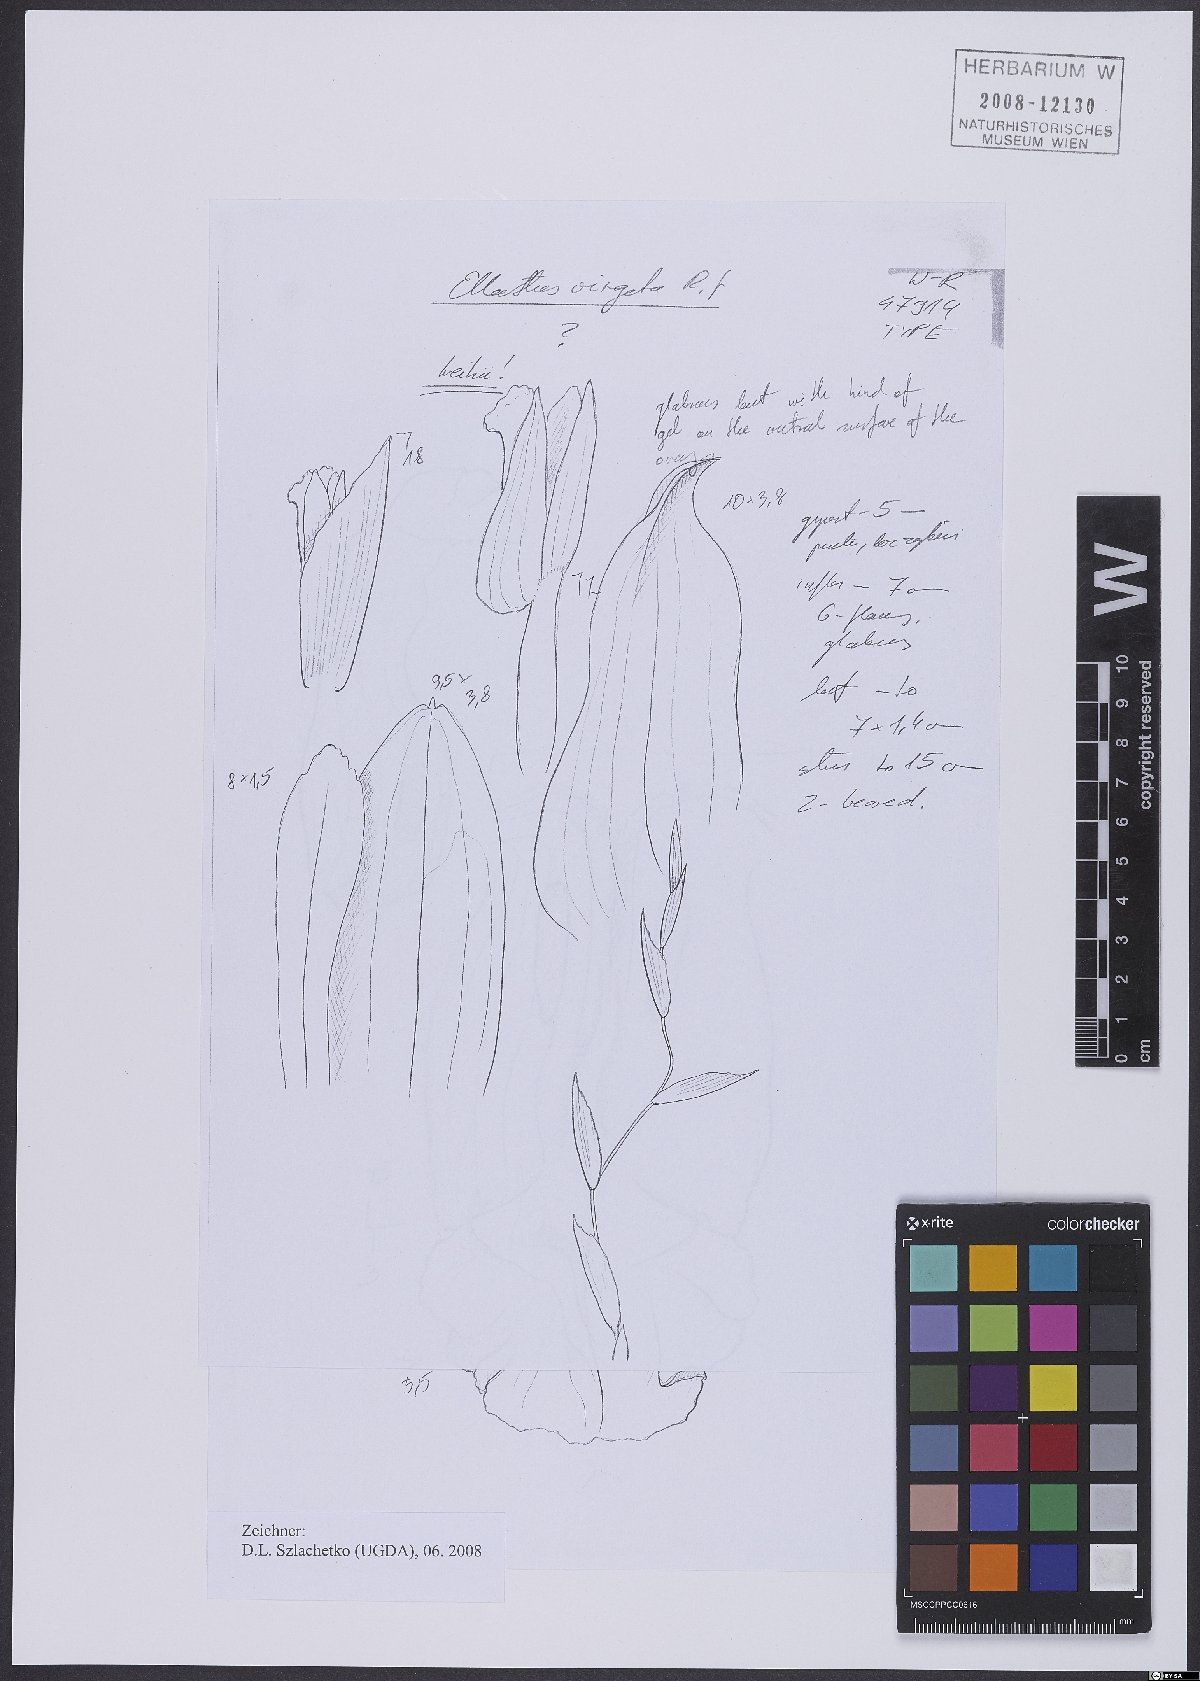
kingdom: Plantae
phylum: Tracheophyta
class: Liliopsida
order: Asparagales
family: Orchidaceae
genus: Elleanthus
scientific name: Elleanthus virgatus
